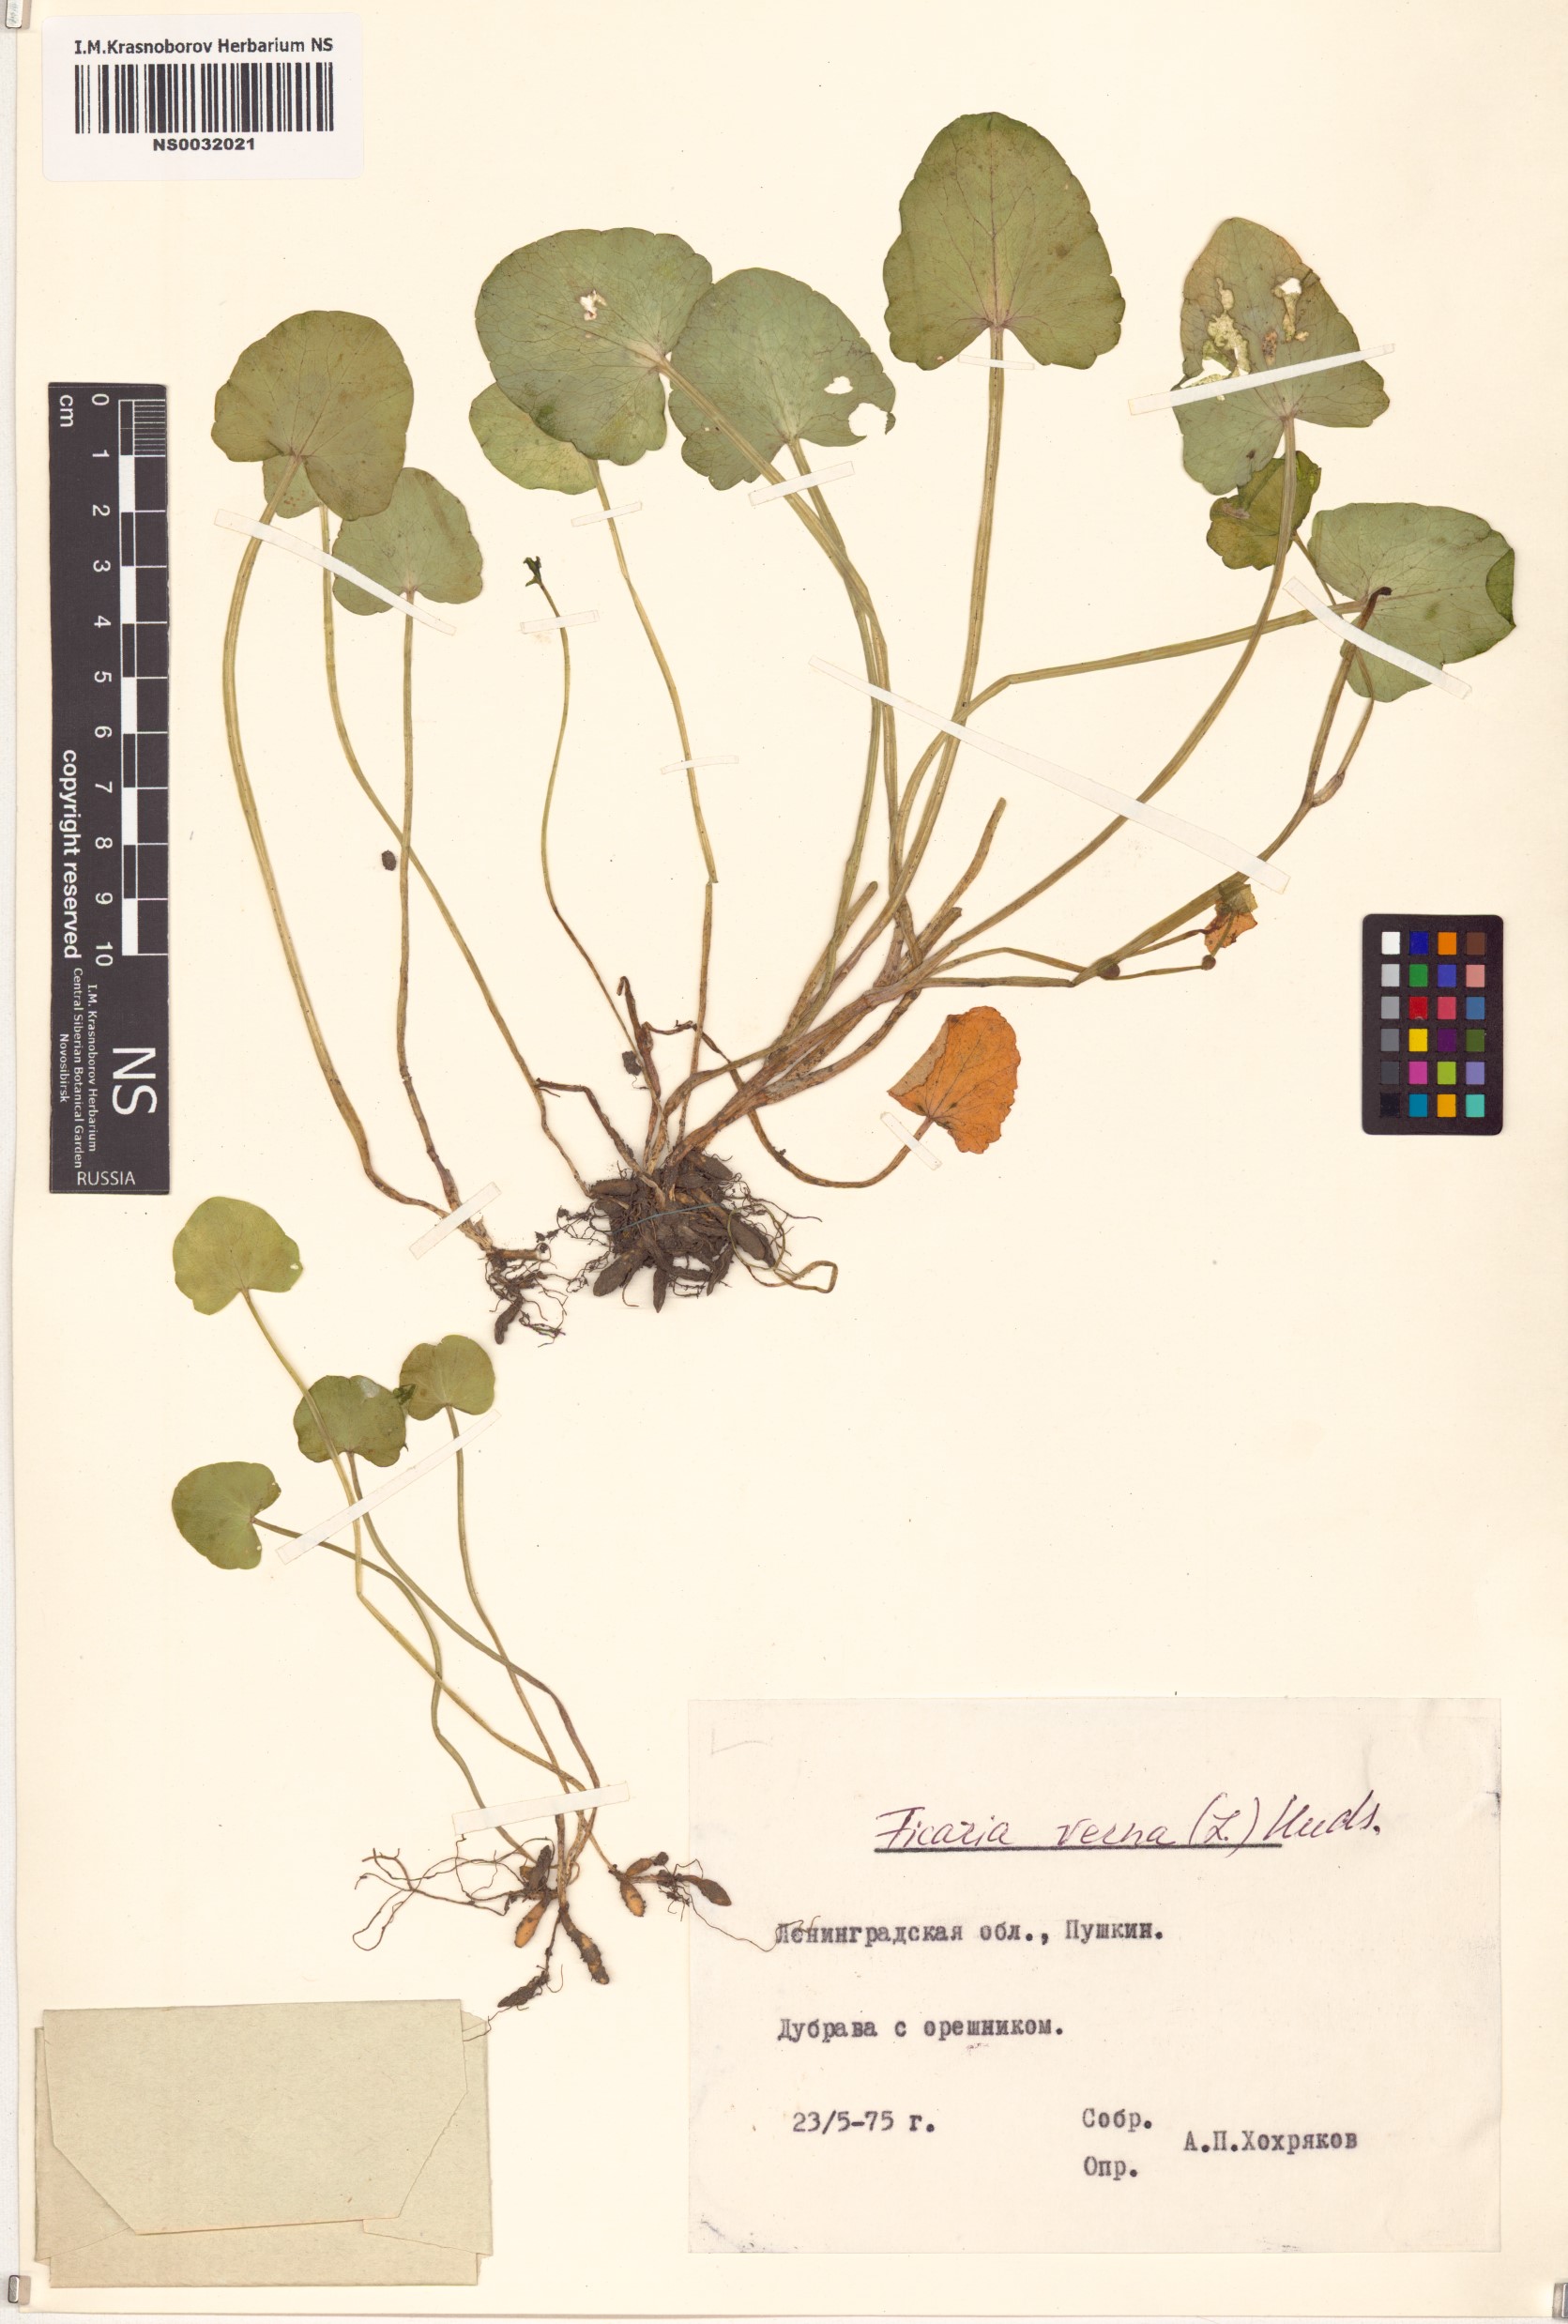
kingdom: Plantae
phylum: Tracheophyta
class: Magnoliopsida
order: Ranunculales
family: Ranunculaceae
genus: Ficaria
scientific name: Ficaria verna
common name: Lesser celandine
